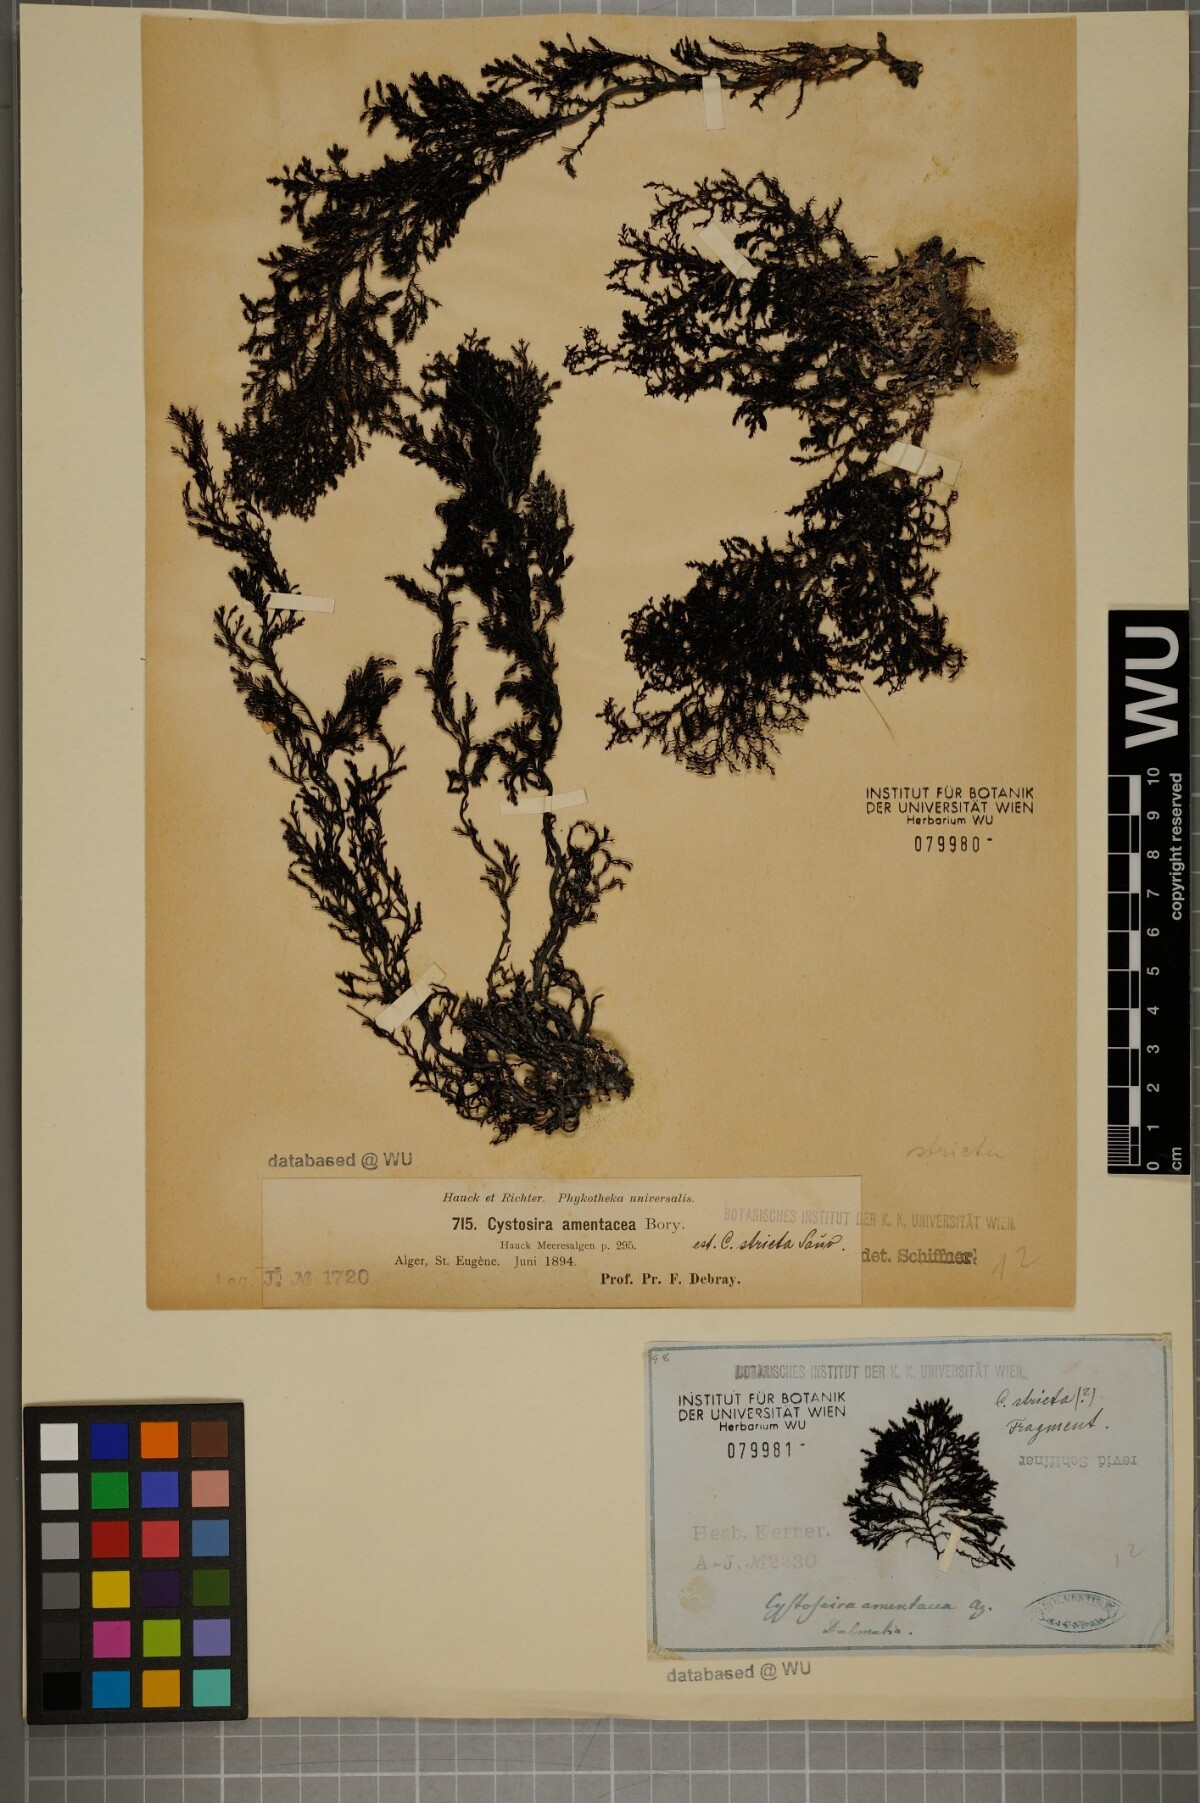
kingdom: Chromista
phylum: Ochrophyta
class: Phaeophyceae
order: Fucales
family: Sargassaceae
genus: Cystoseira
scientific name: Cystoseira Ericaria amentacea
